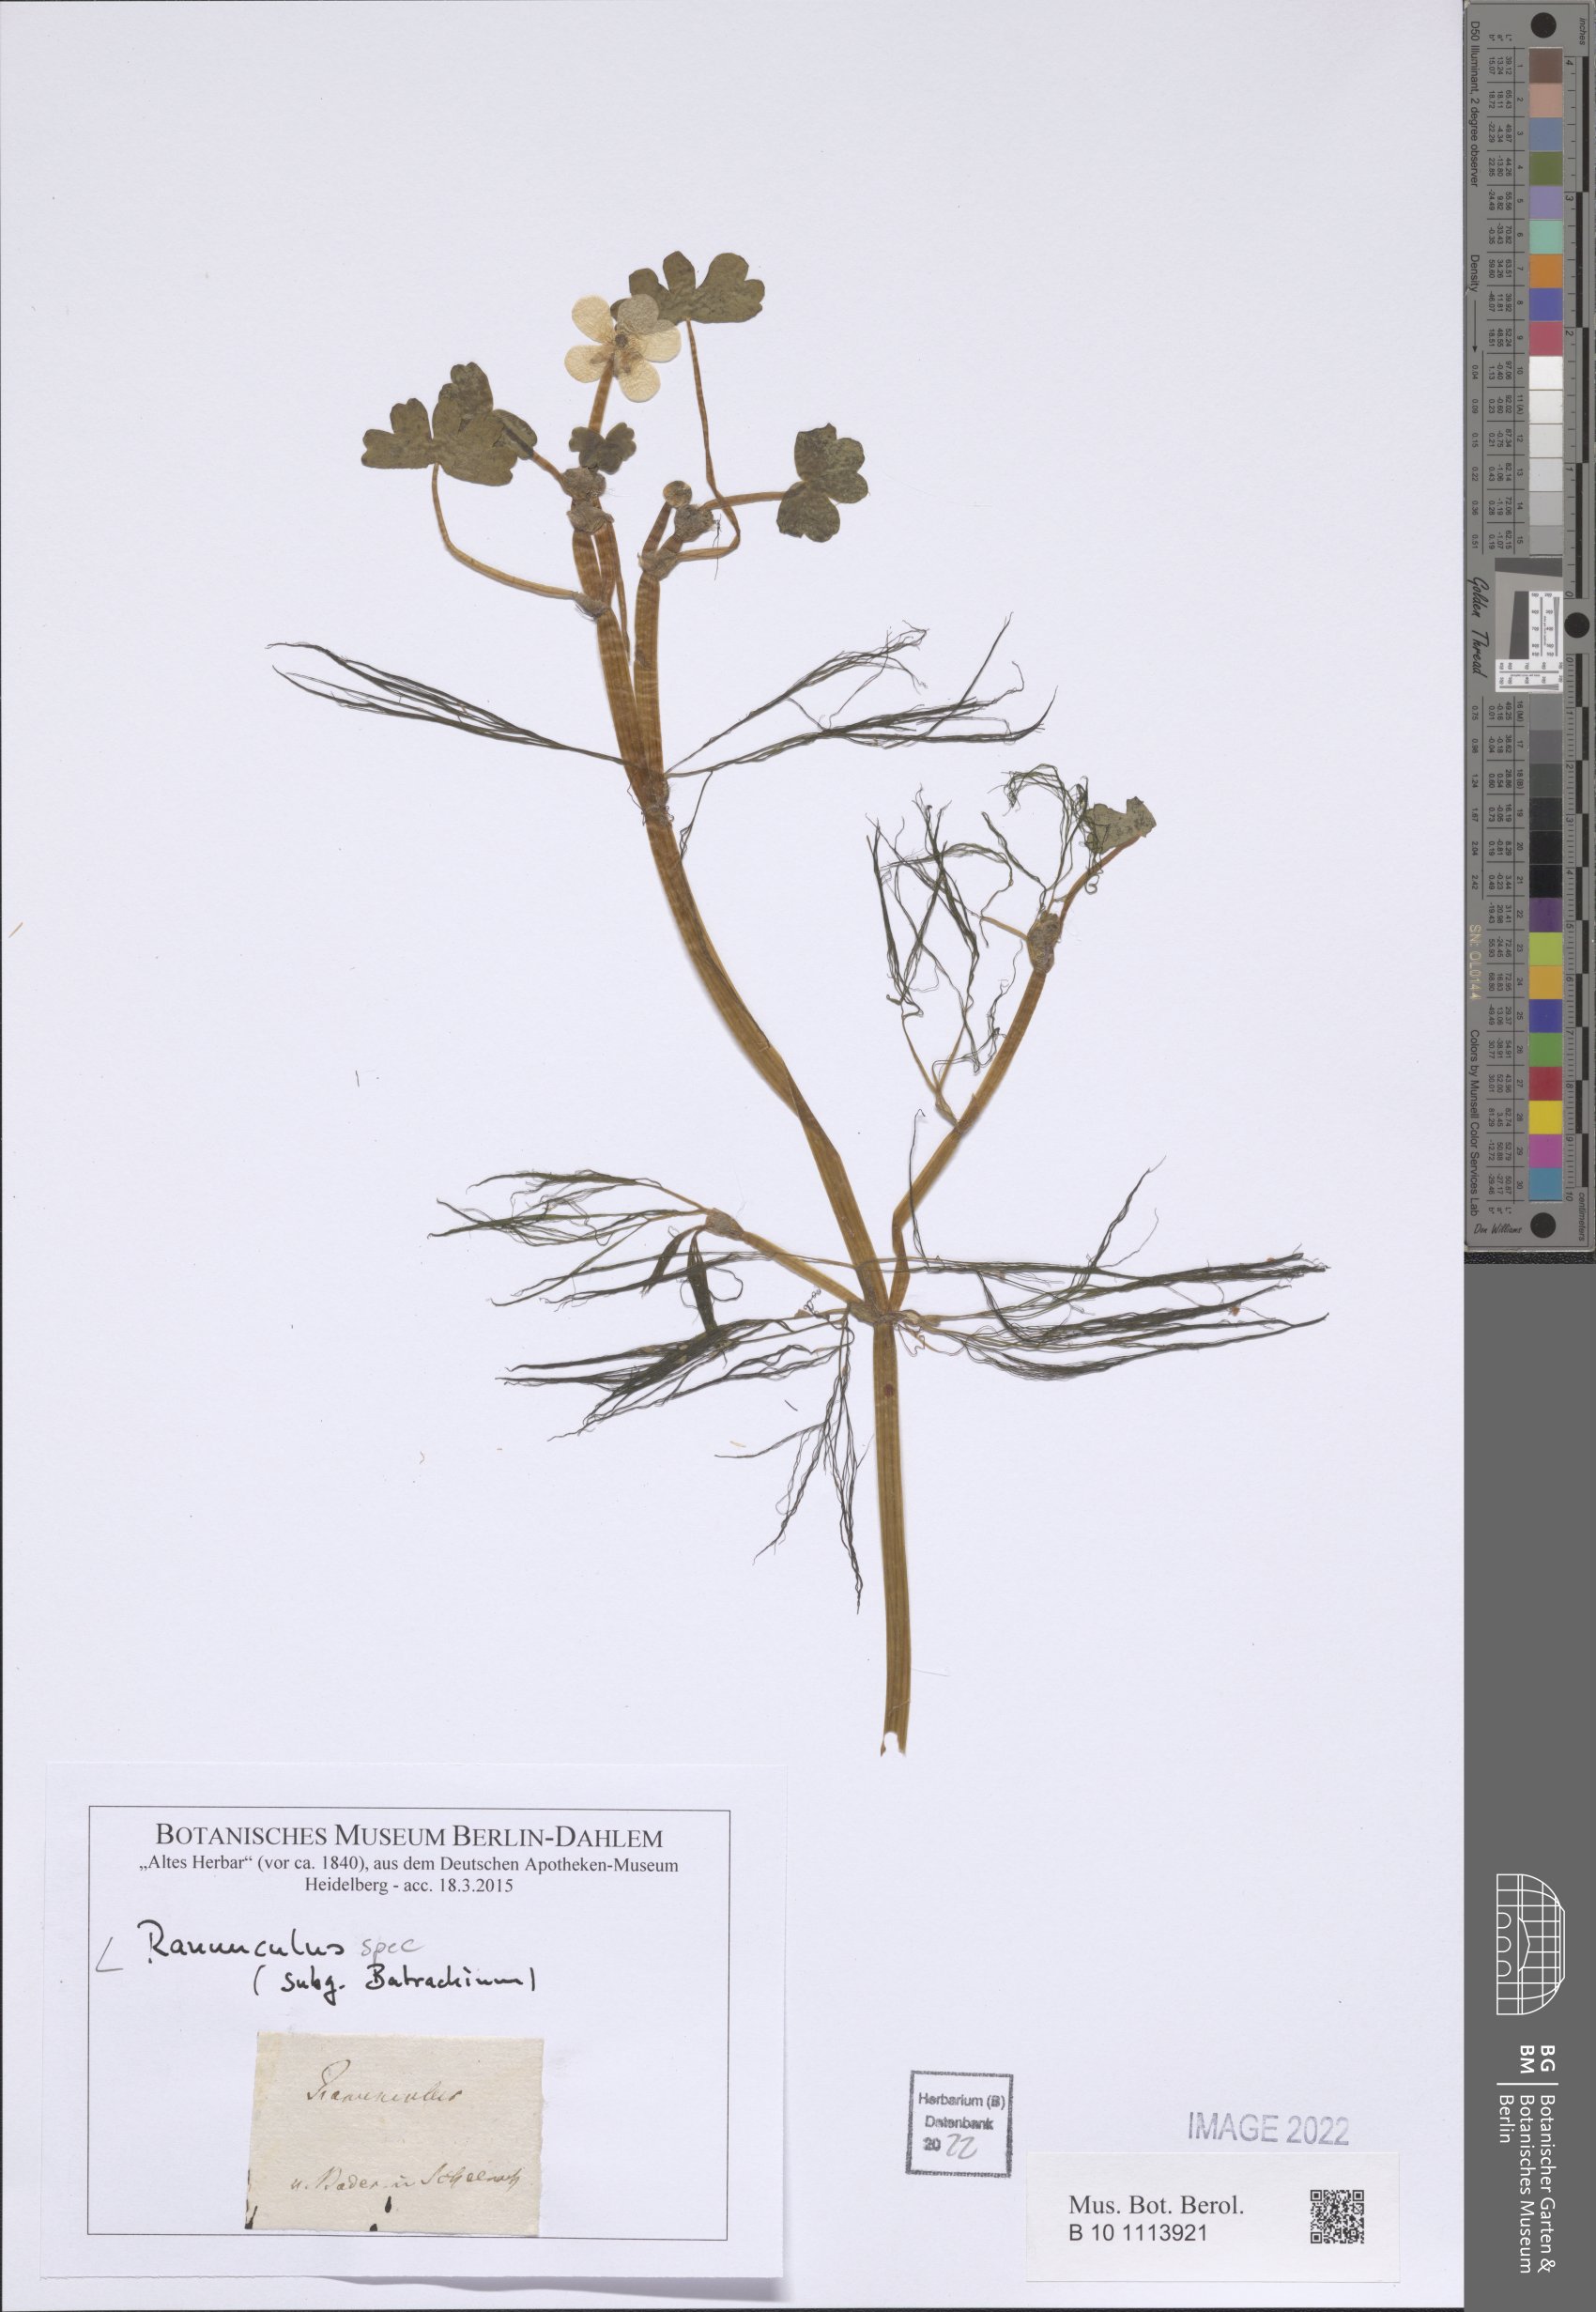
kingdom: Plantae
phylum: Tracheophyta
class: Magnoliopsida
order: Ranunculales
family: Ranunculaceae
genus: Ranunculus
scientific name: Ranunculus penicillatus
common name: Stream water-crowfoot
